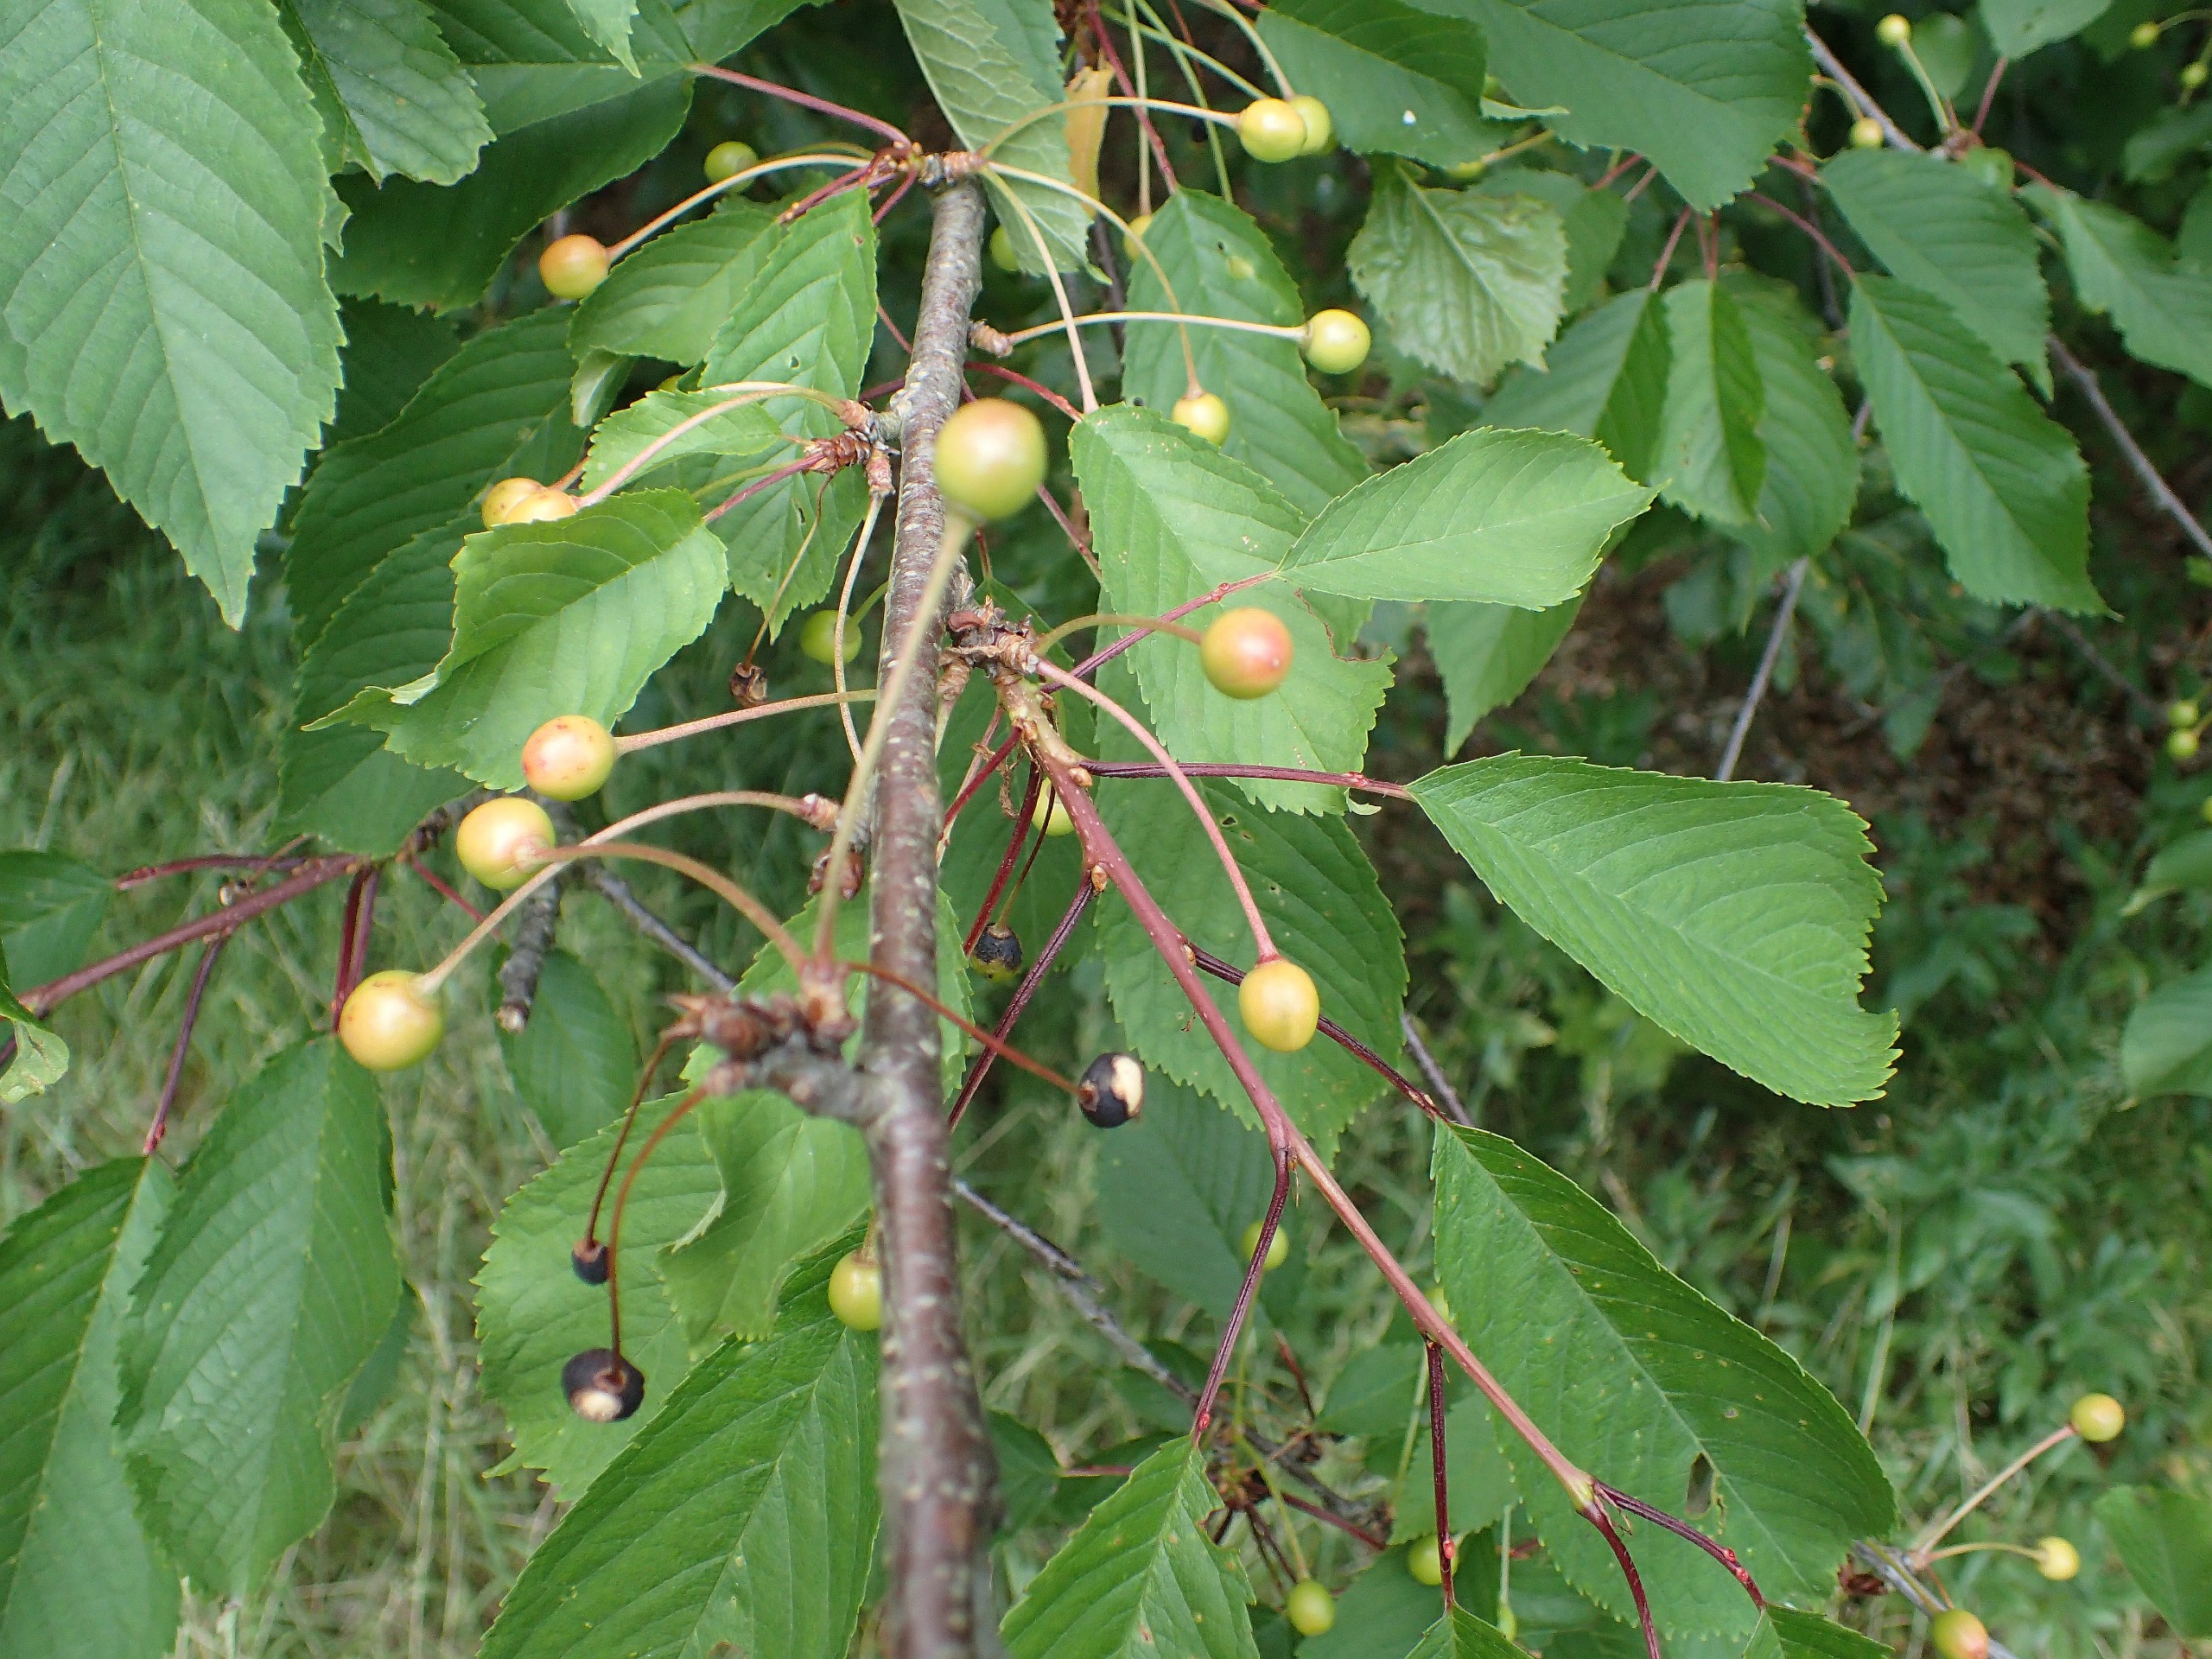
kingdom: Plantae
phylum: Tracheophyta
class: Magnoliopsida
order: Rosales
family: Rosaceae
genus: Prunus
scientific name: Prunus avium
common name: Fugle-kirsebær
